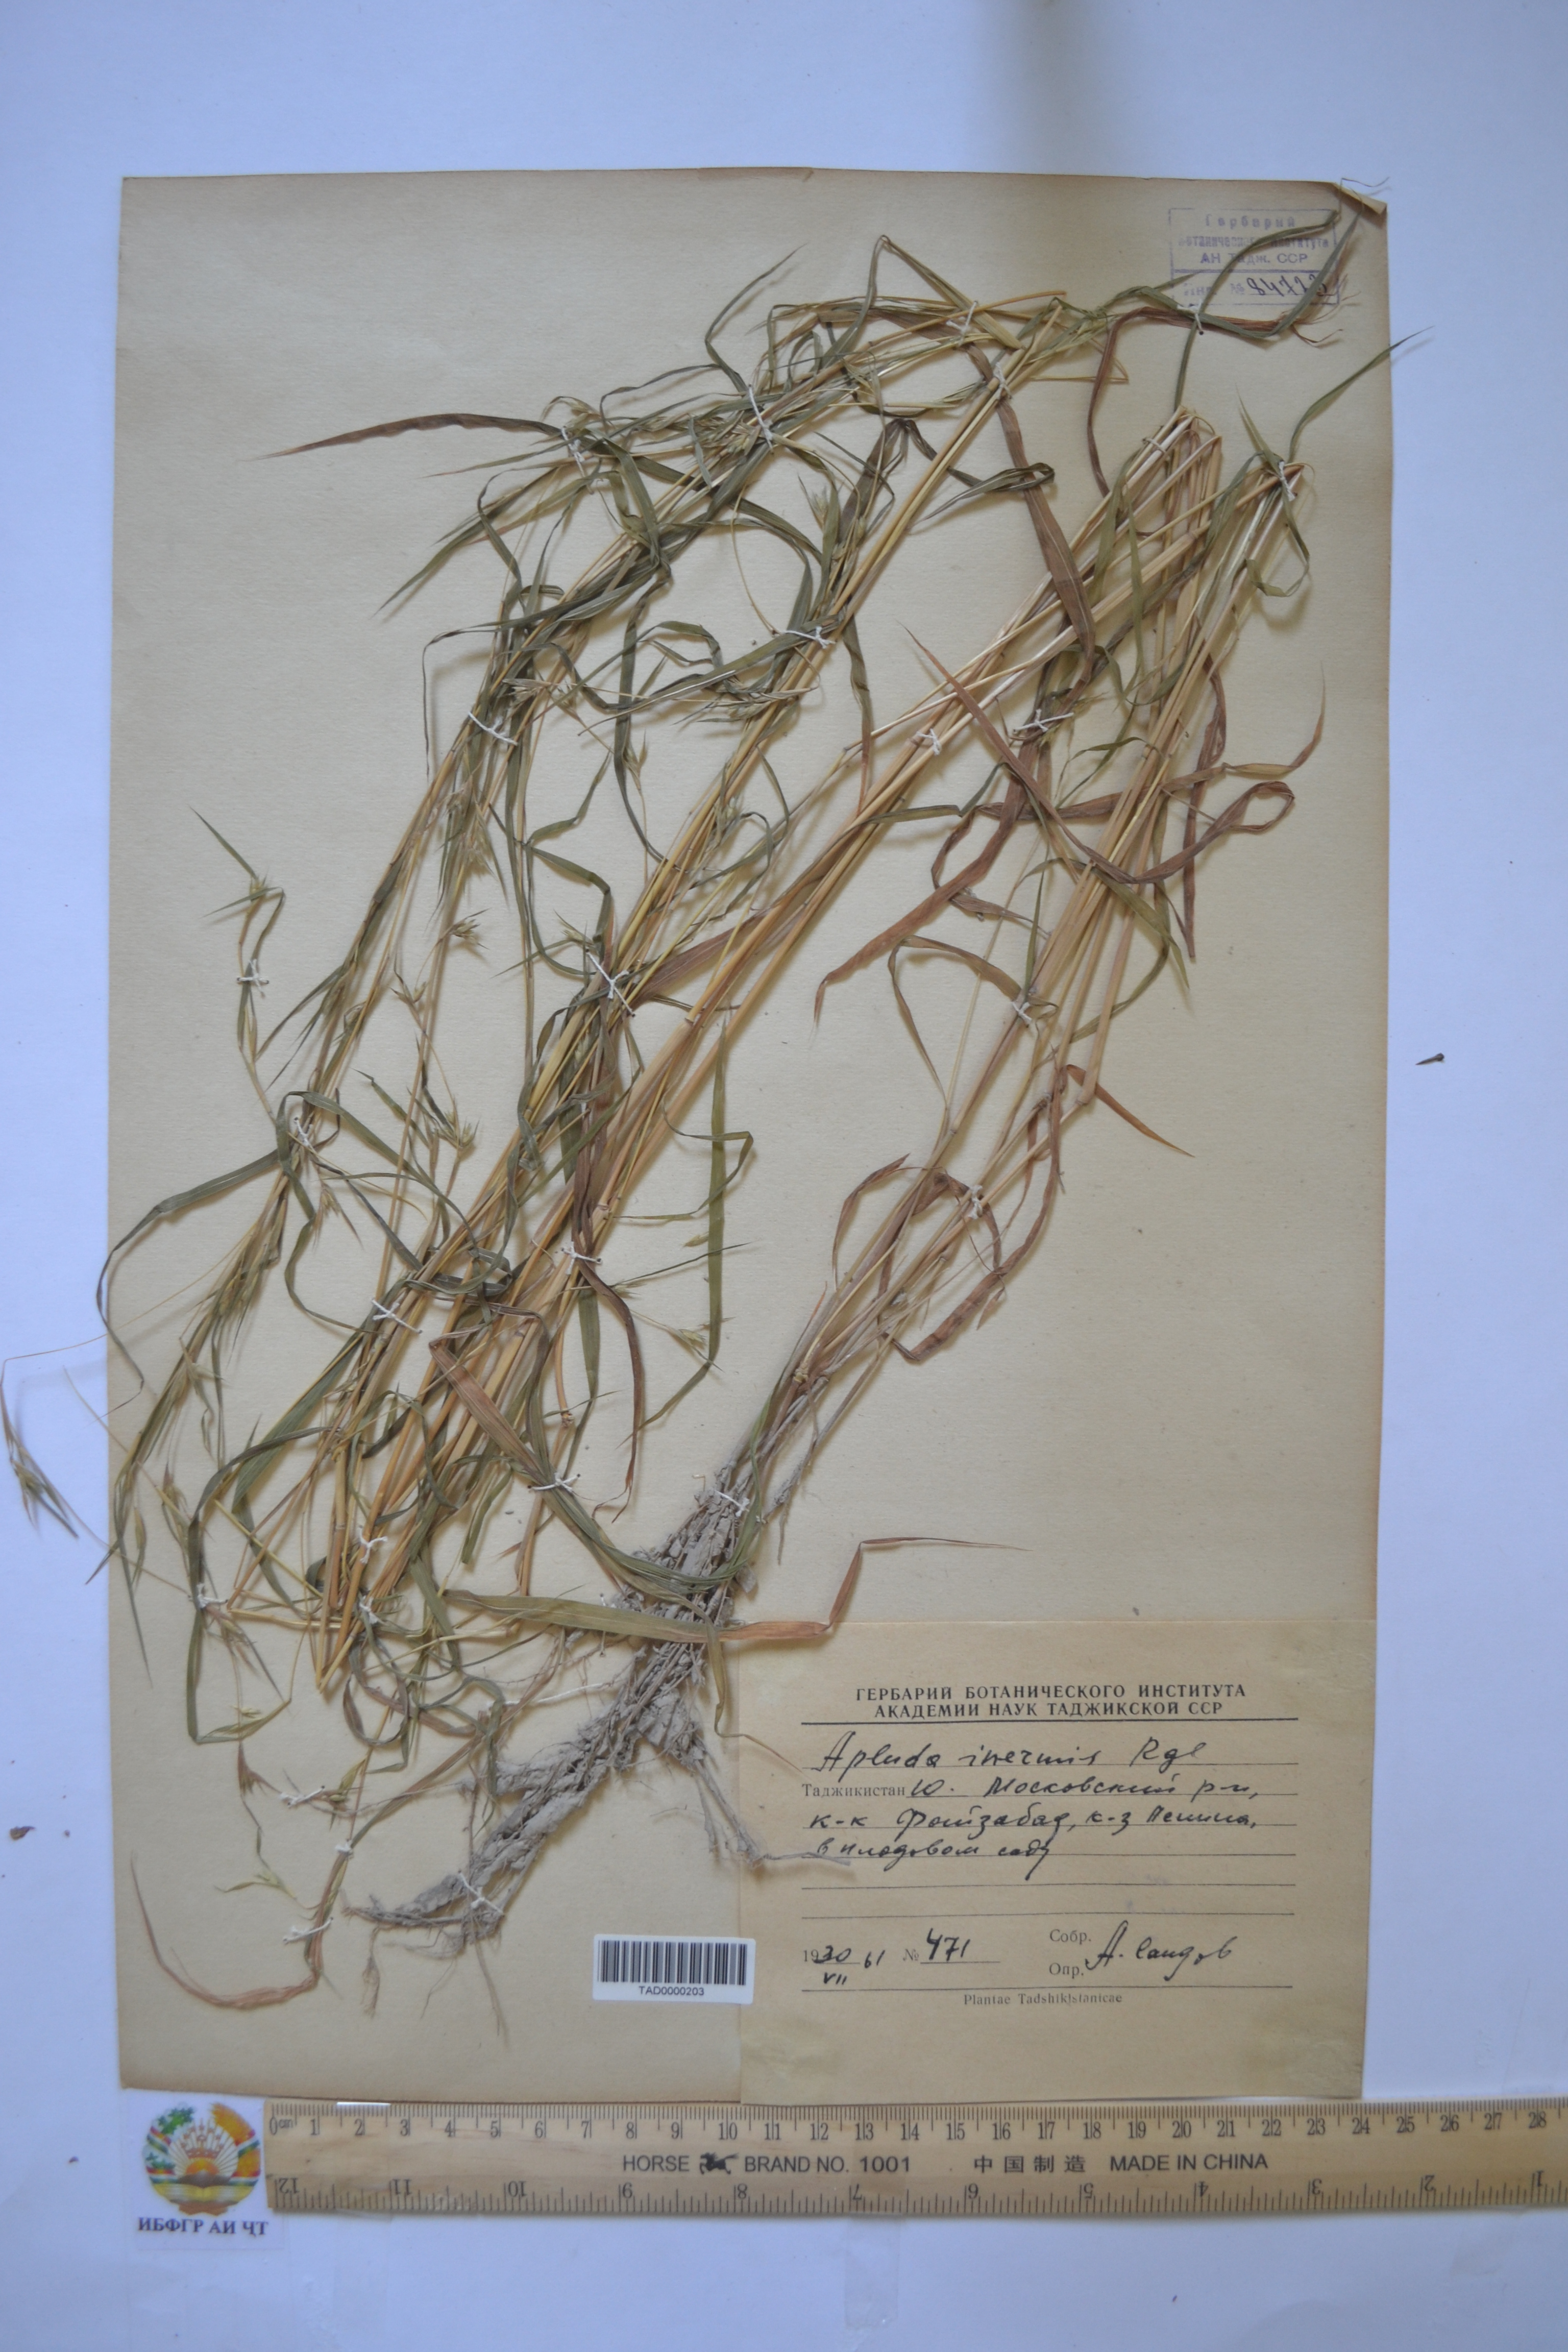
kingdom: Plantae
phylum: Tracheophyta
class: Liliopsida
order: Poales
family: Poaceae
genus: Apluda
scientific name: Apluda mutica
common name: Mauritian grass
